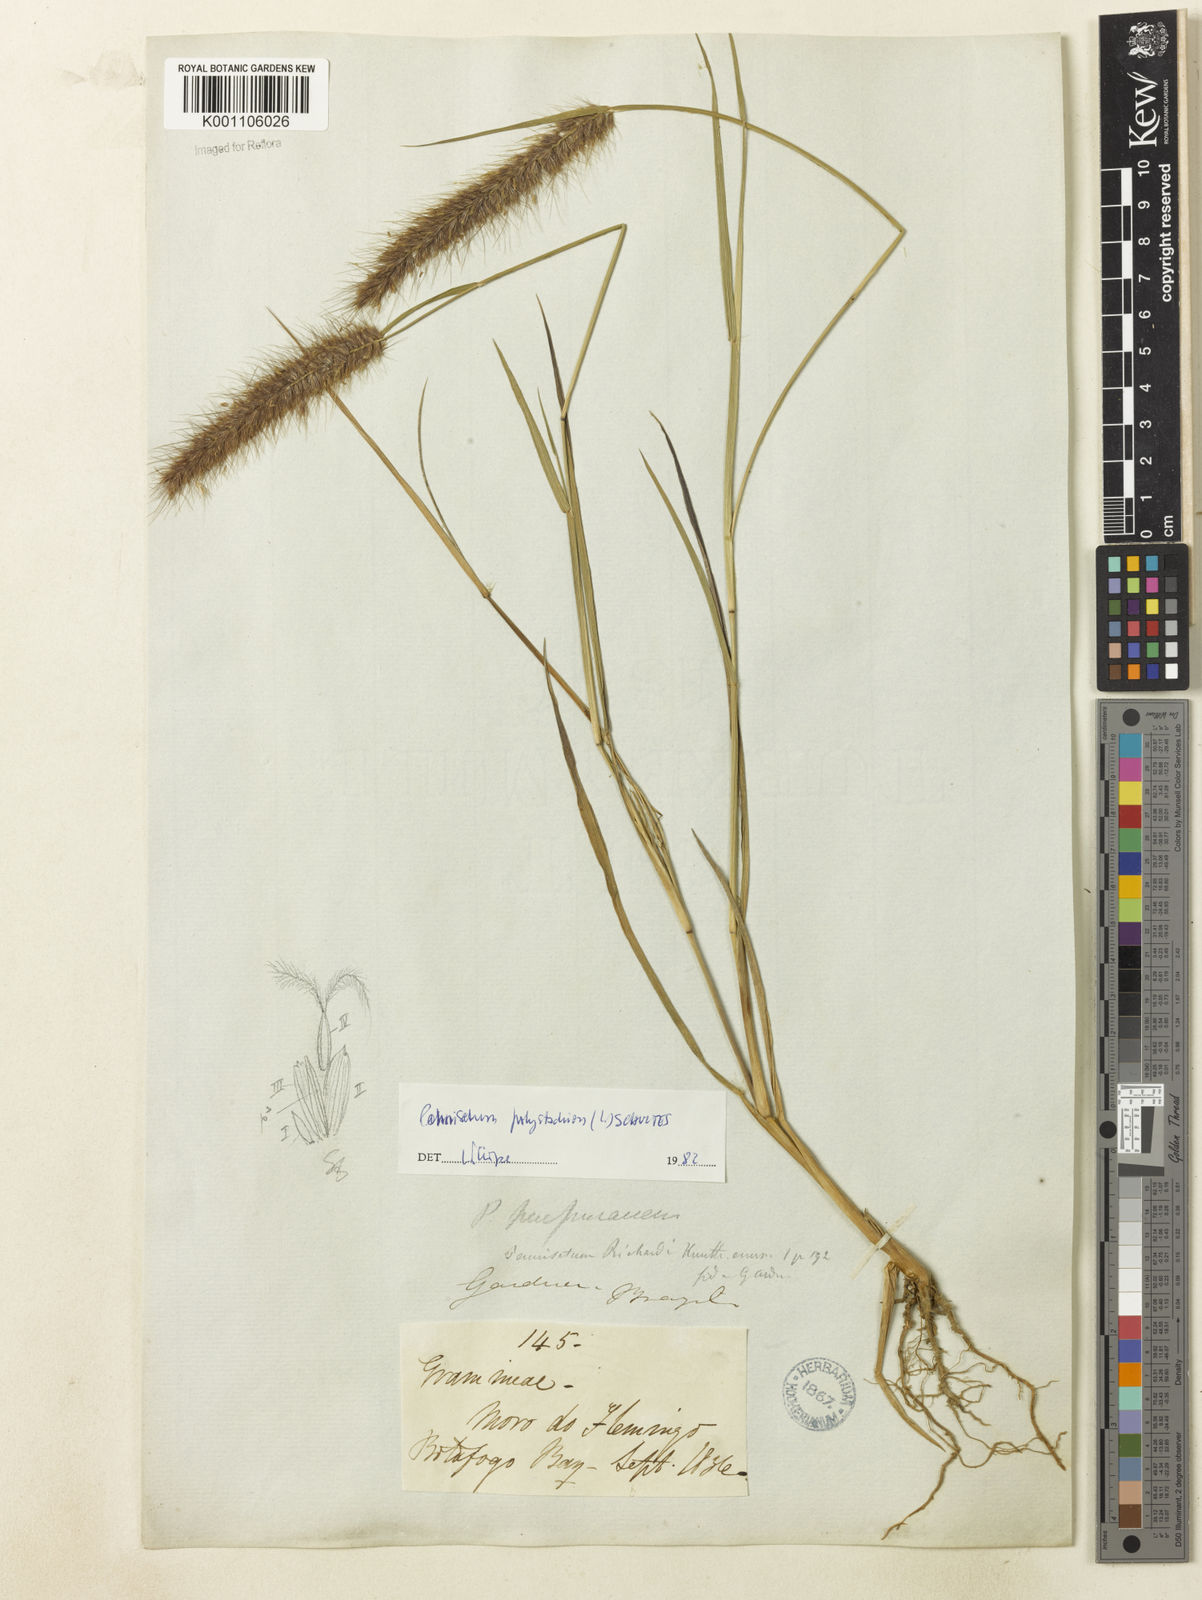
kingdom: Plantae
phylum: Tracheophyta
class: Liliopsida
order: Poales
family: Poaceae
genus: Setaria
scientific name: Setaria parviflora
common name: Knotroot bristle-grass
